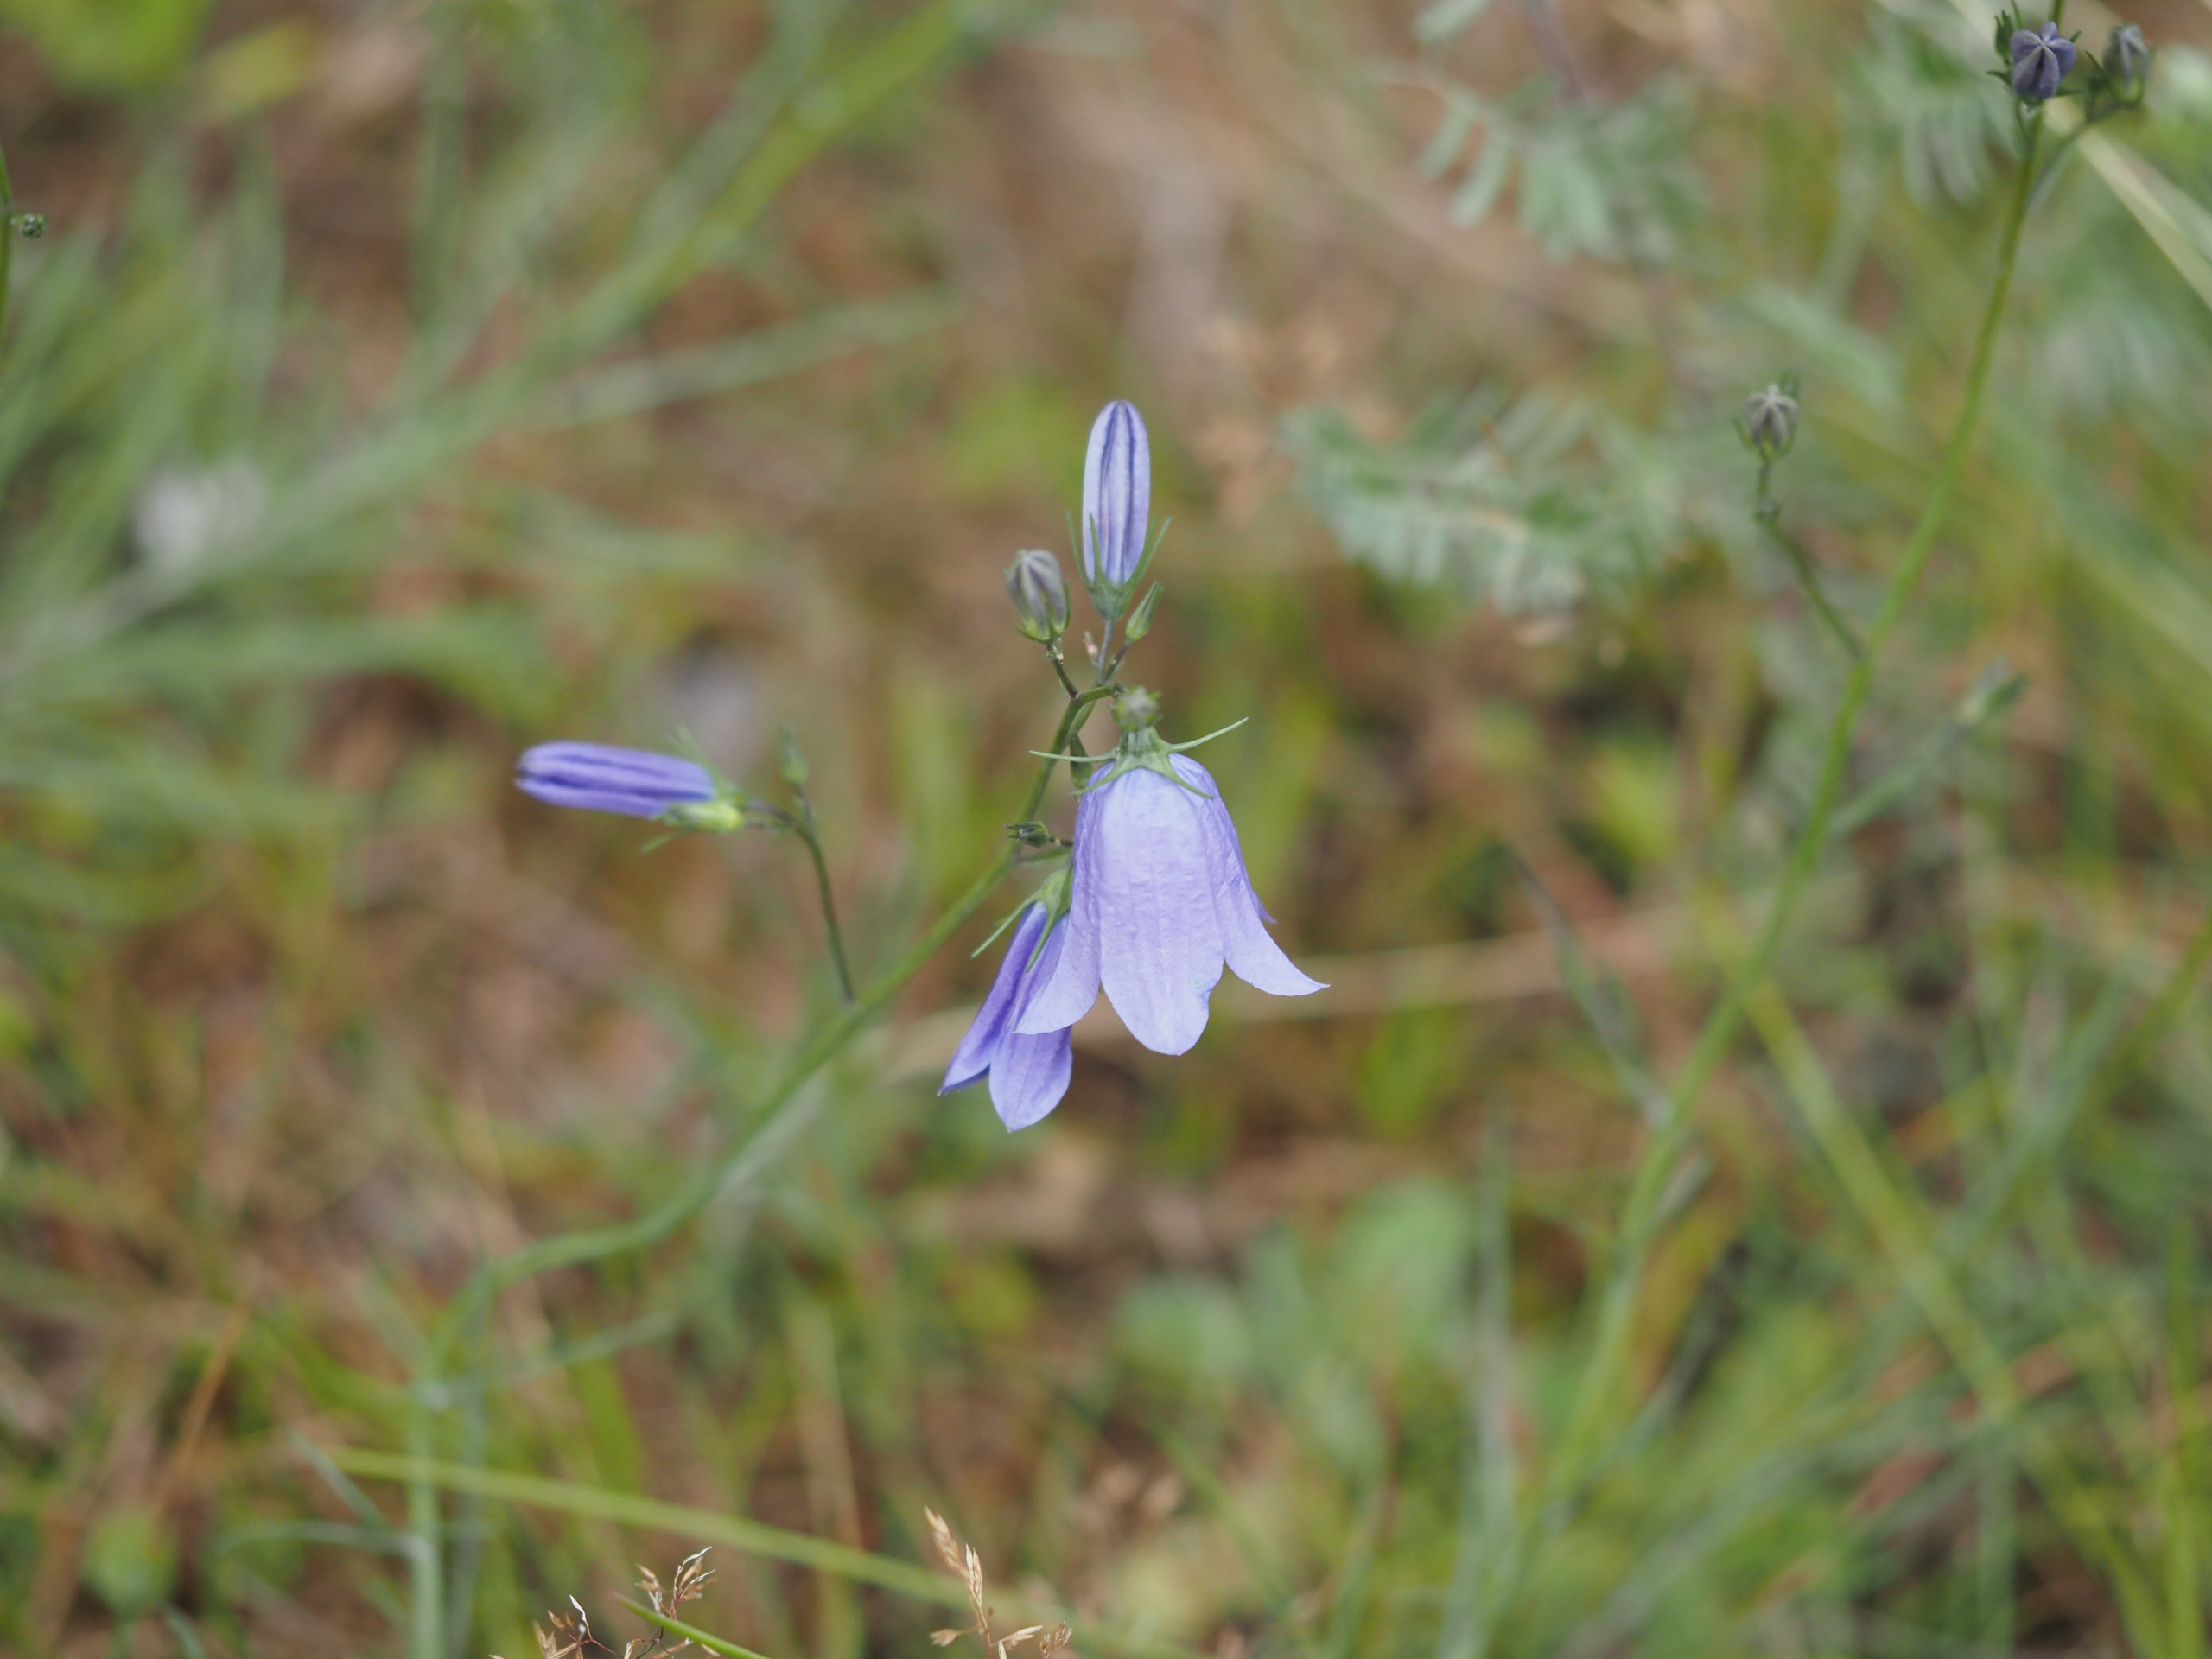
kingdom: Plantae
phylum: Tracheophyta
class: Magnoliopsida
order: Asterales
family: Campanulaceae
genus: Campanula
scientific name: Campanula rotundifolia
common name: Liden klokke
